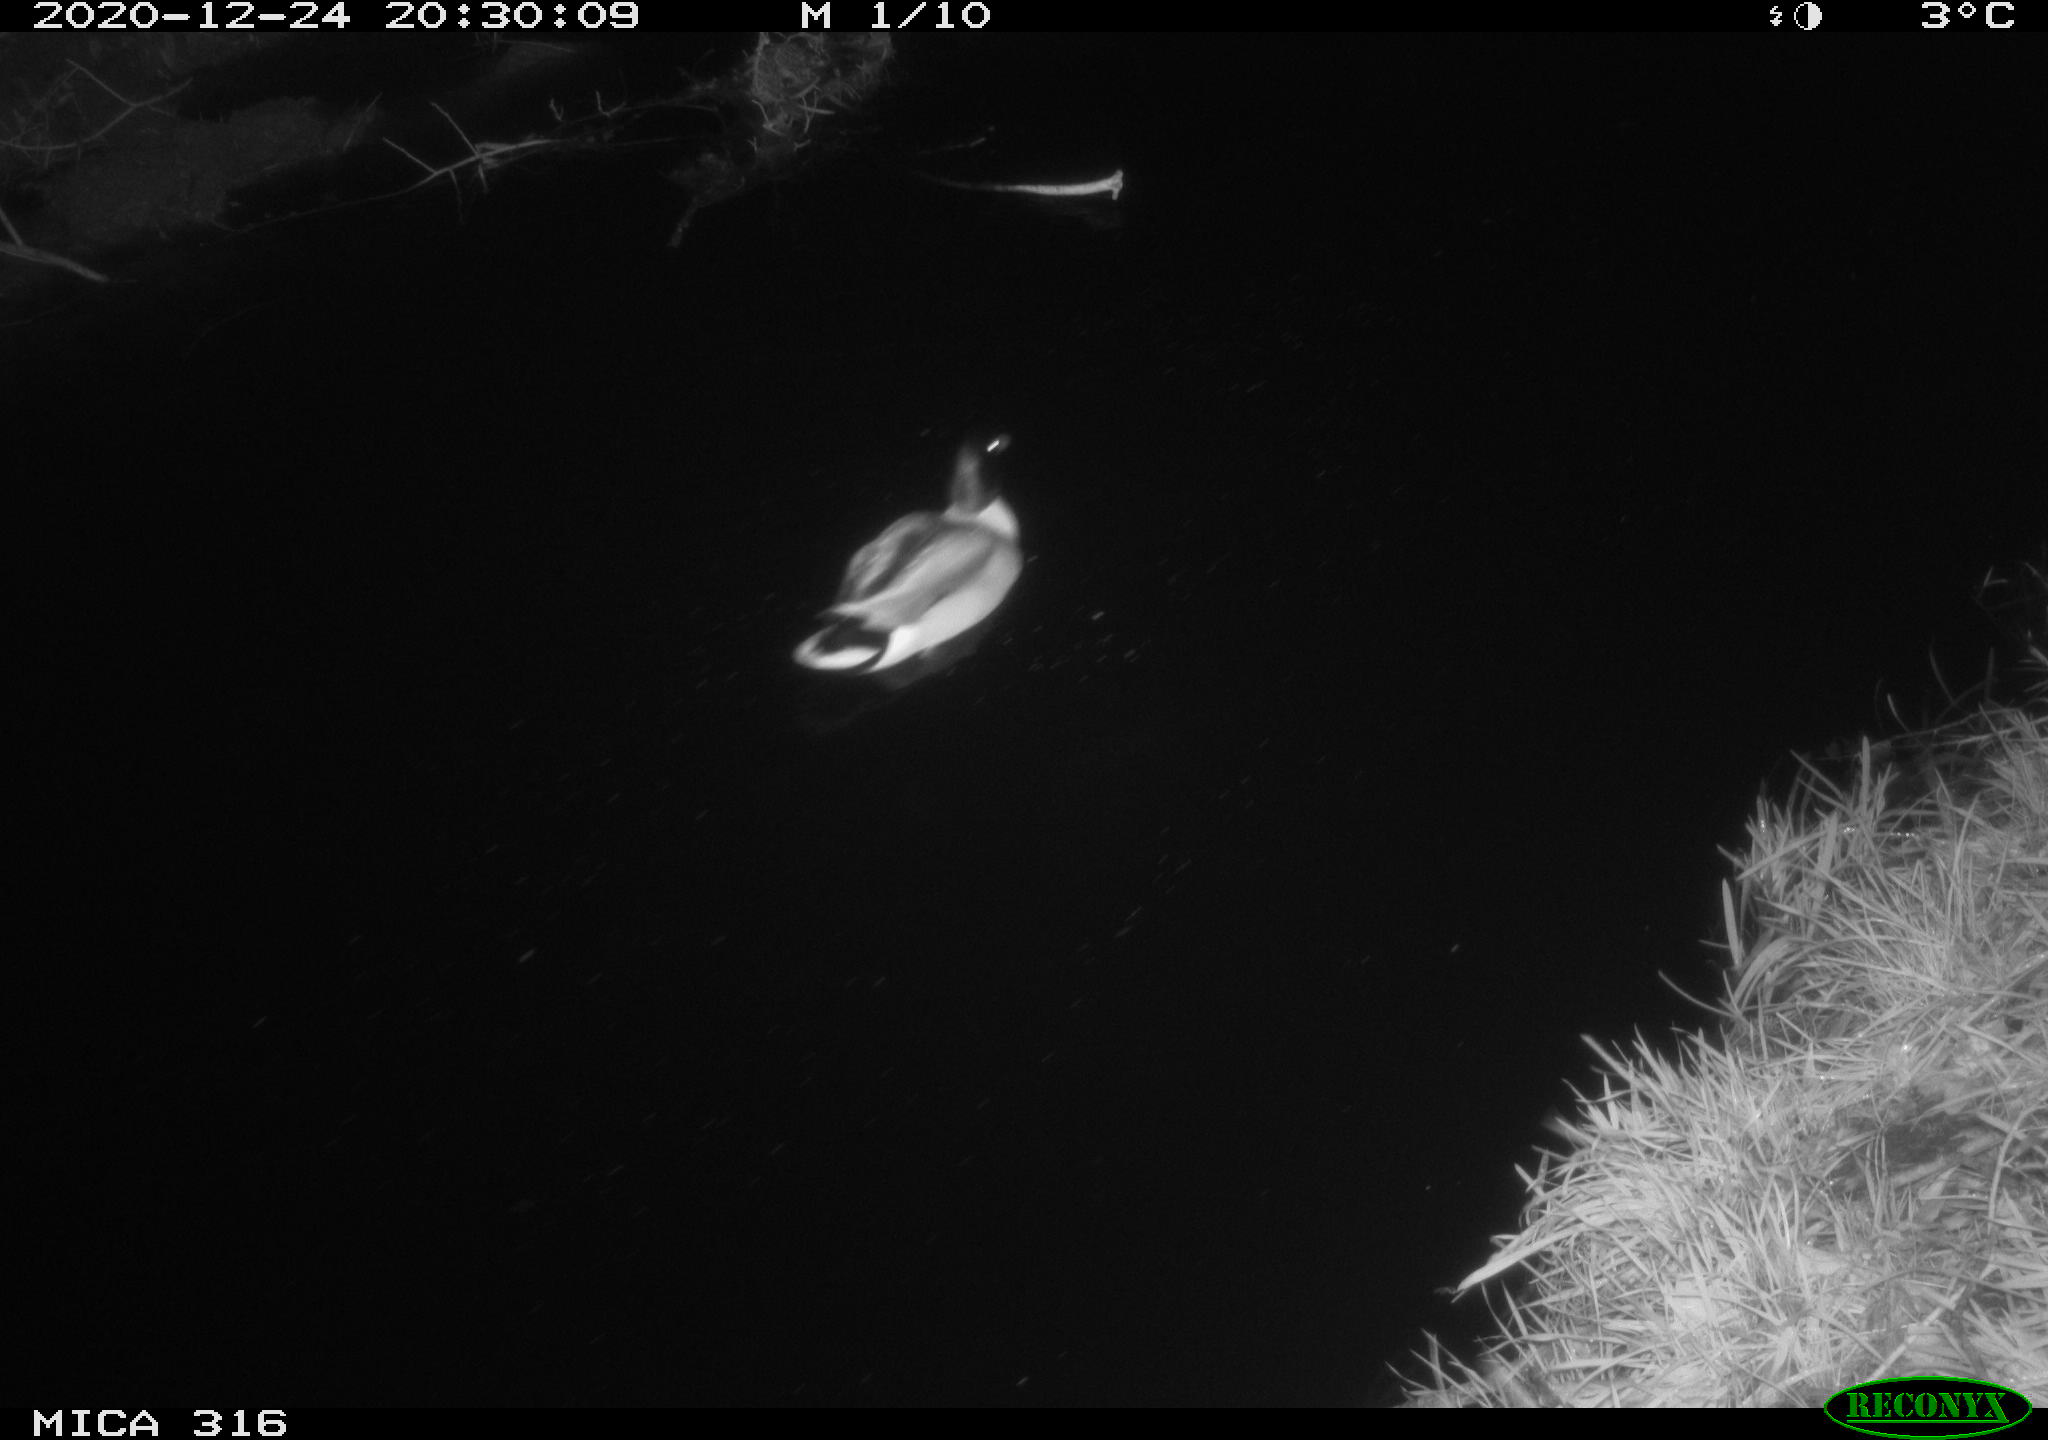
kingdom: Animalia
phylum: Chordata
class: Aves
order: Anseriformes
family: Anatidae
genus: Anas
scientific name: Anas platyrhynchos
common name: Mallard
